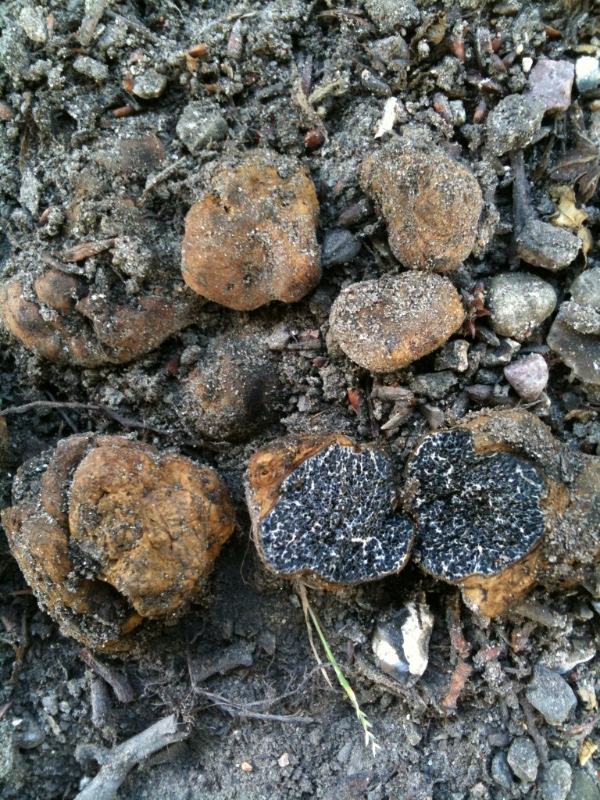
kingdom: Fungi
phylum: Basidiomycota
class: Agaricomycetes
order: Boletales
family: Paxillaceae
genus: Melanogaster
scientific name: Melanogaster broomeanus
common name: broget slimtrøffel
